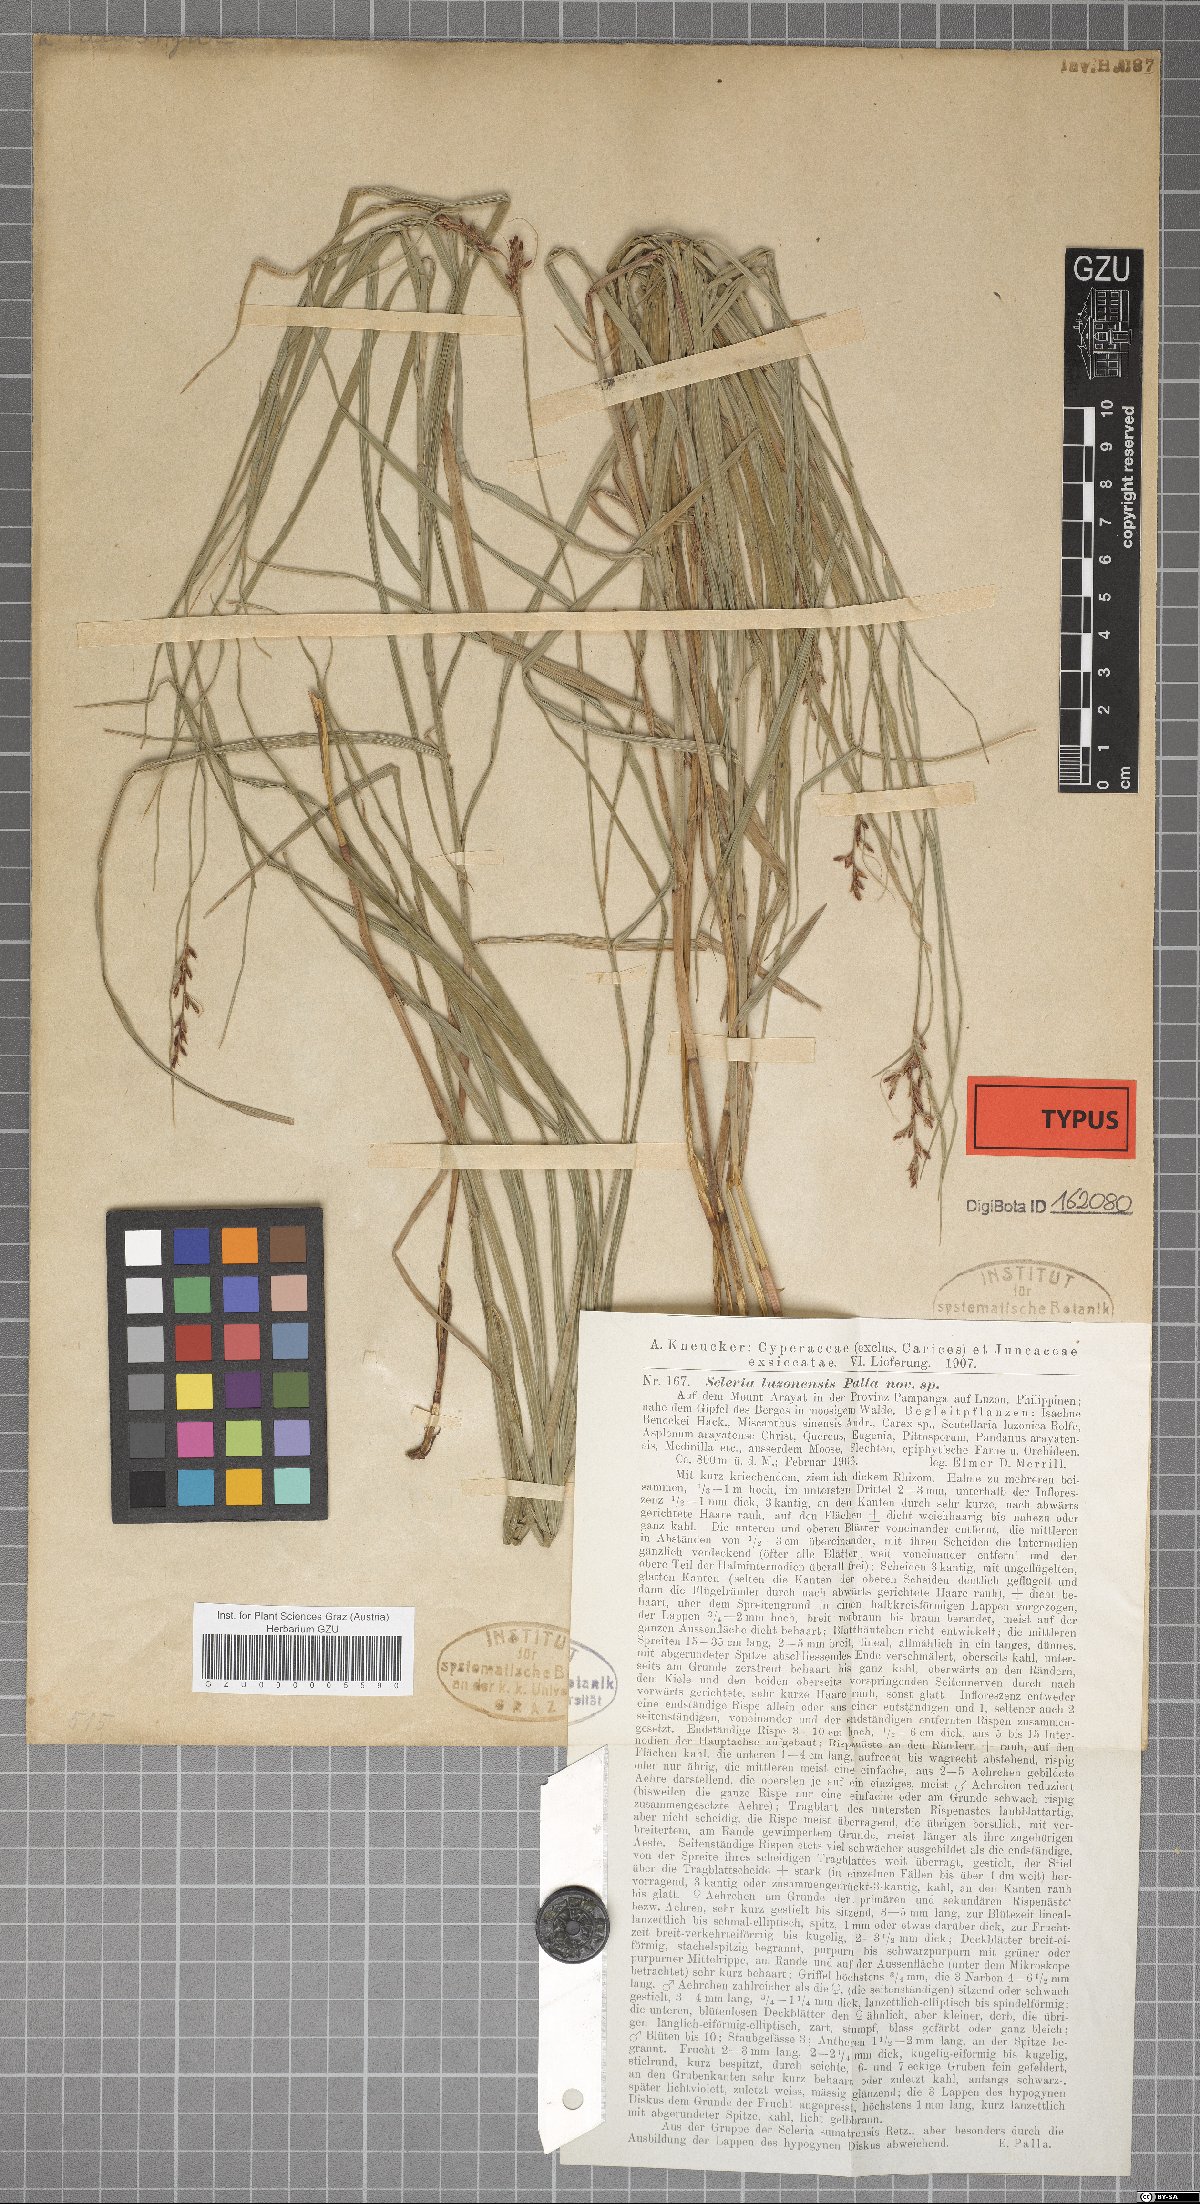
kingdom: Plantae
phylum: Tracheophyta
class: Liliopsida
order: Poales
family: Cyperaceae
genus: Scleria
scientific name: Scleria terrestris
